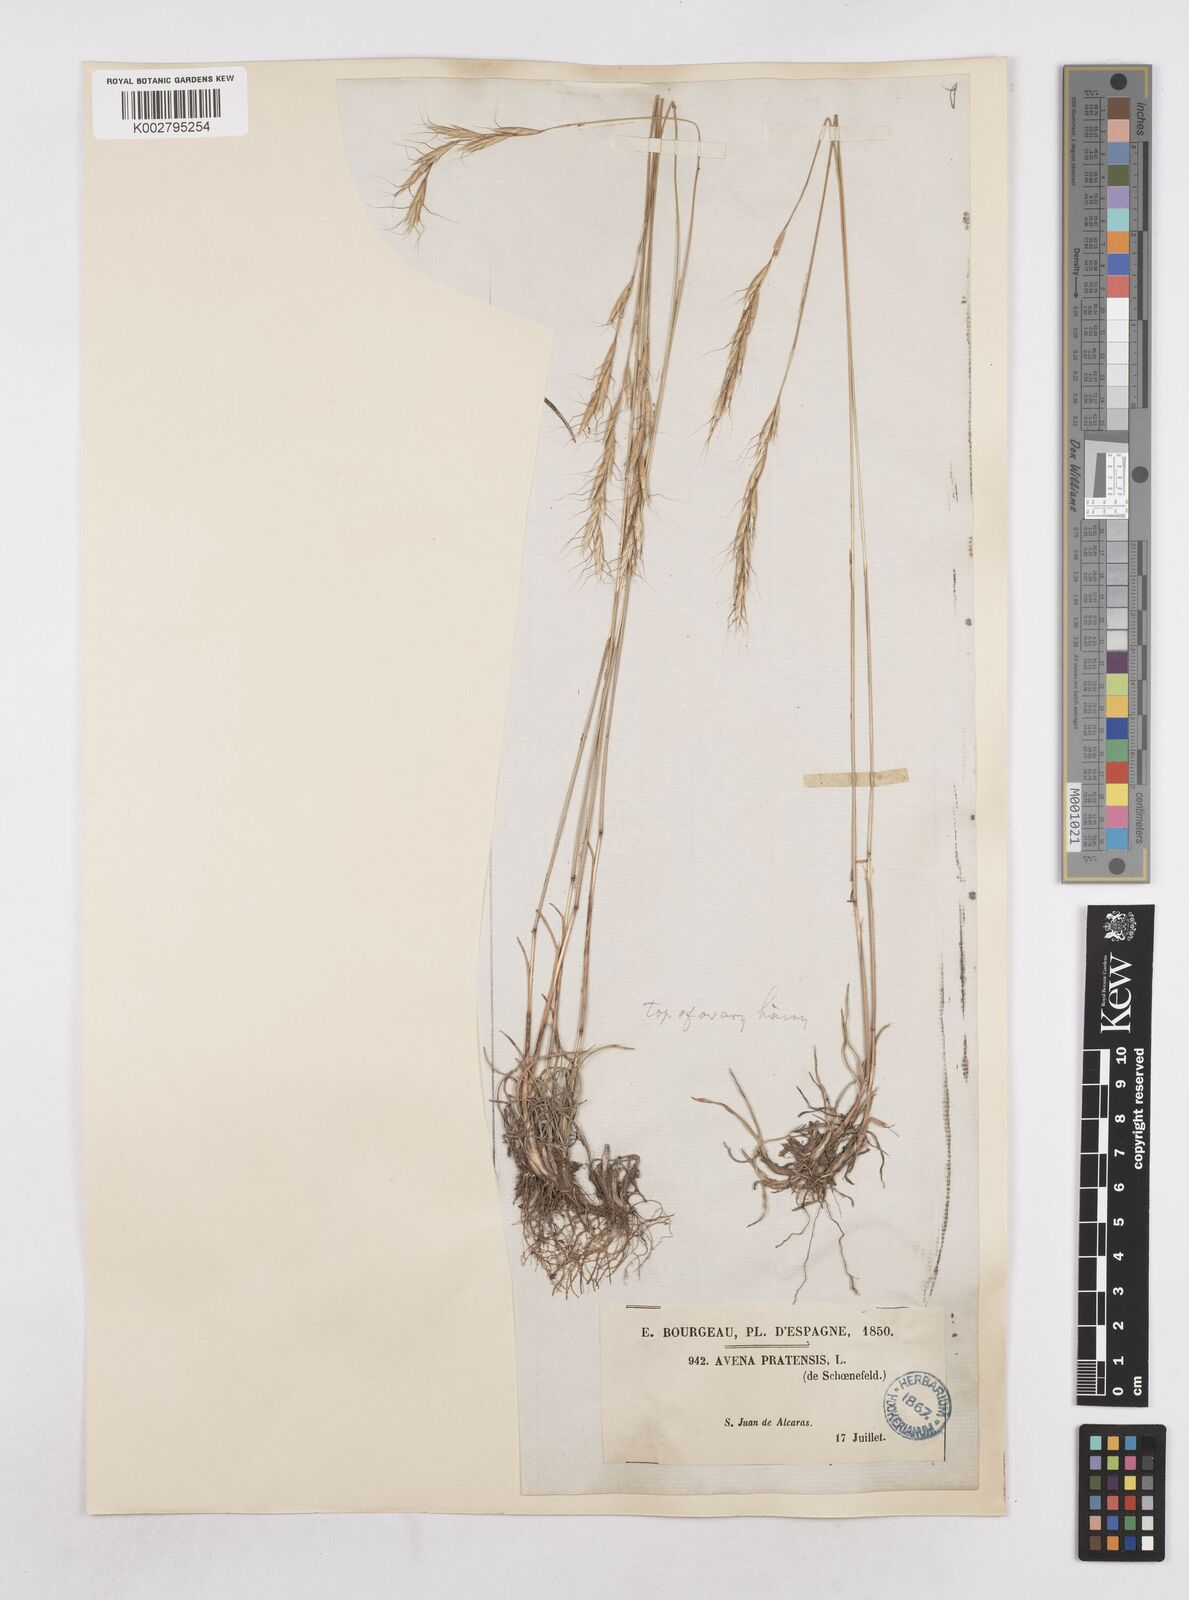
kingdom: Plantae
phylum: Tracheophyta
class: Liliopsida
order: Poales
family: Poaceae
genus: Helictochloa
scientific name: Helictochloa bromoides
